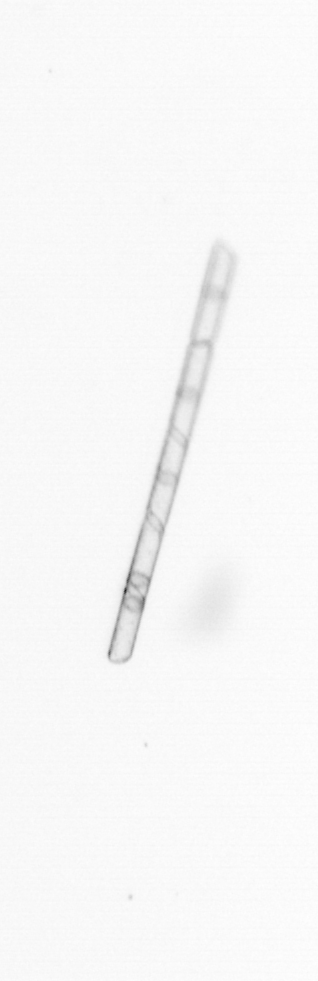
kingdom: Chromista
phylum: Ochrophyta
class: Bacillariophyceae
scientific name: Bacillariophyceae
